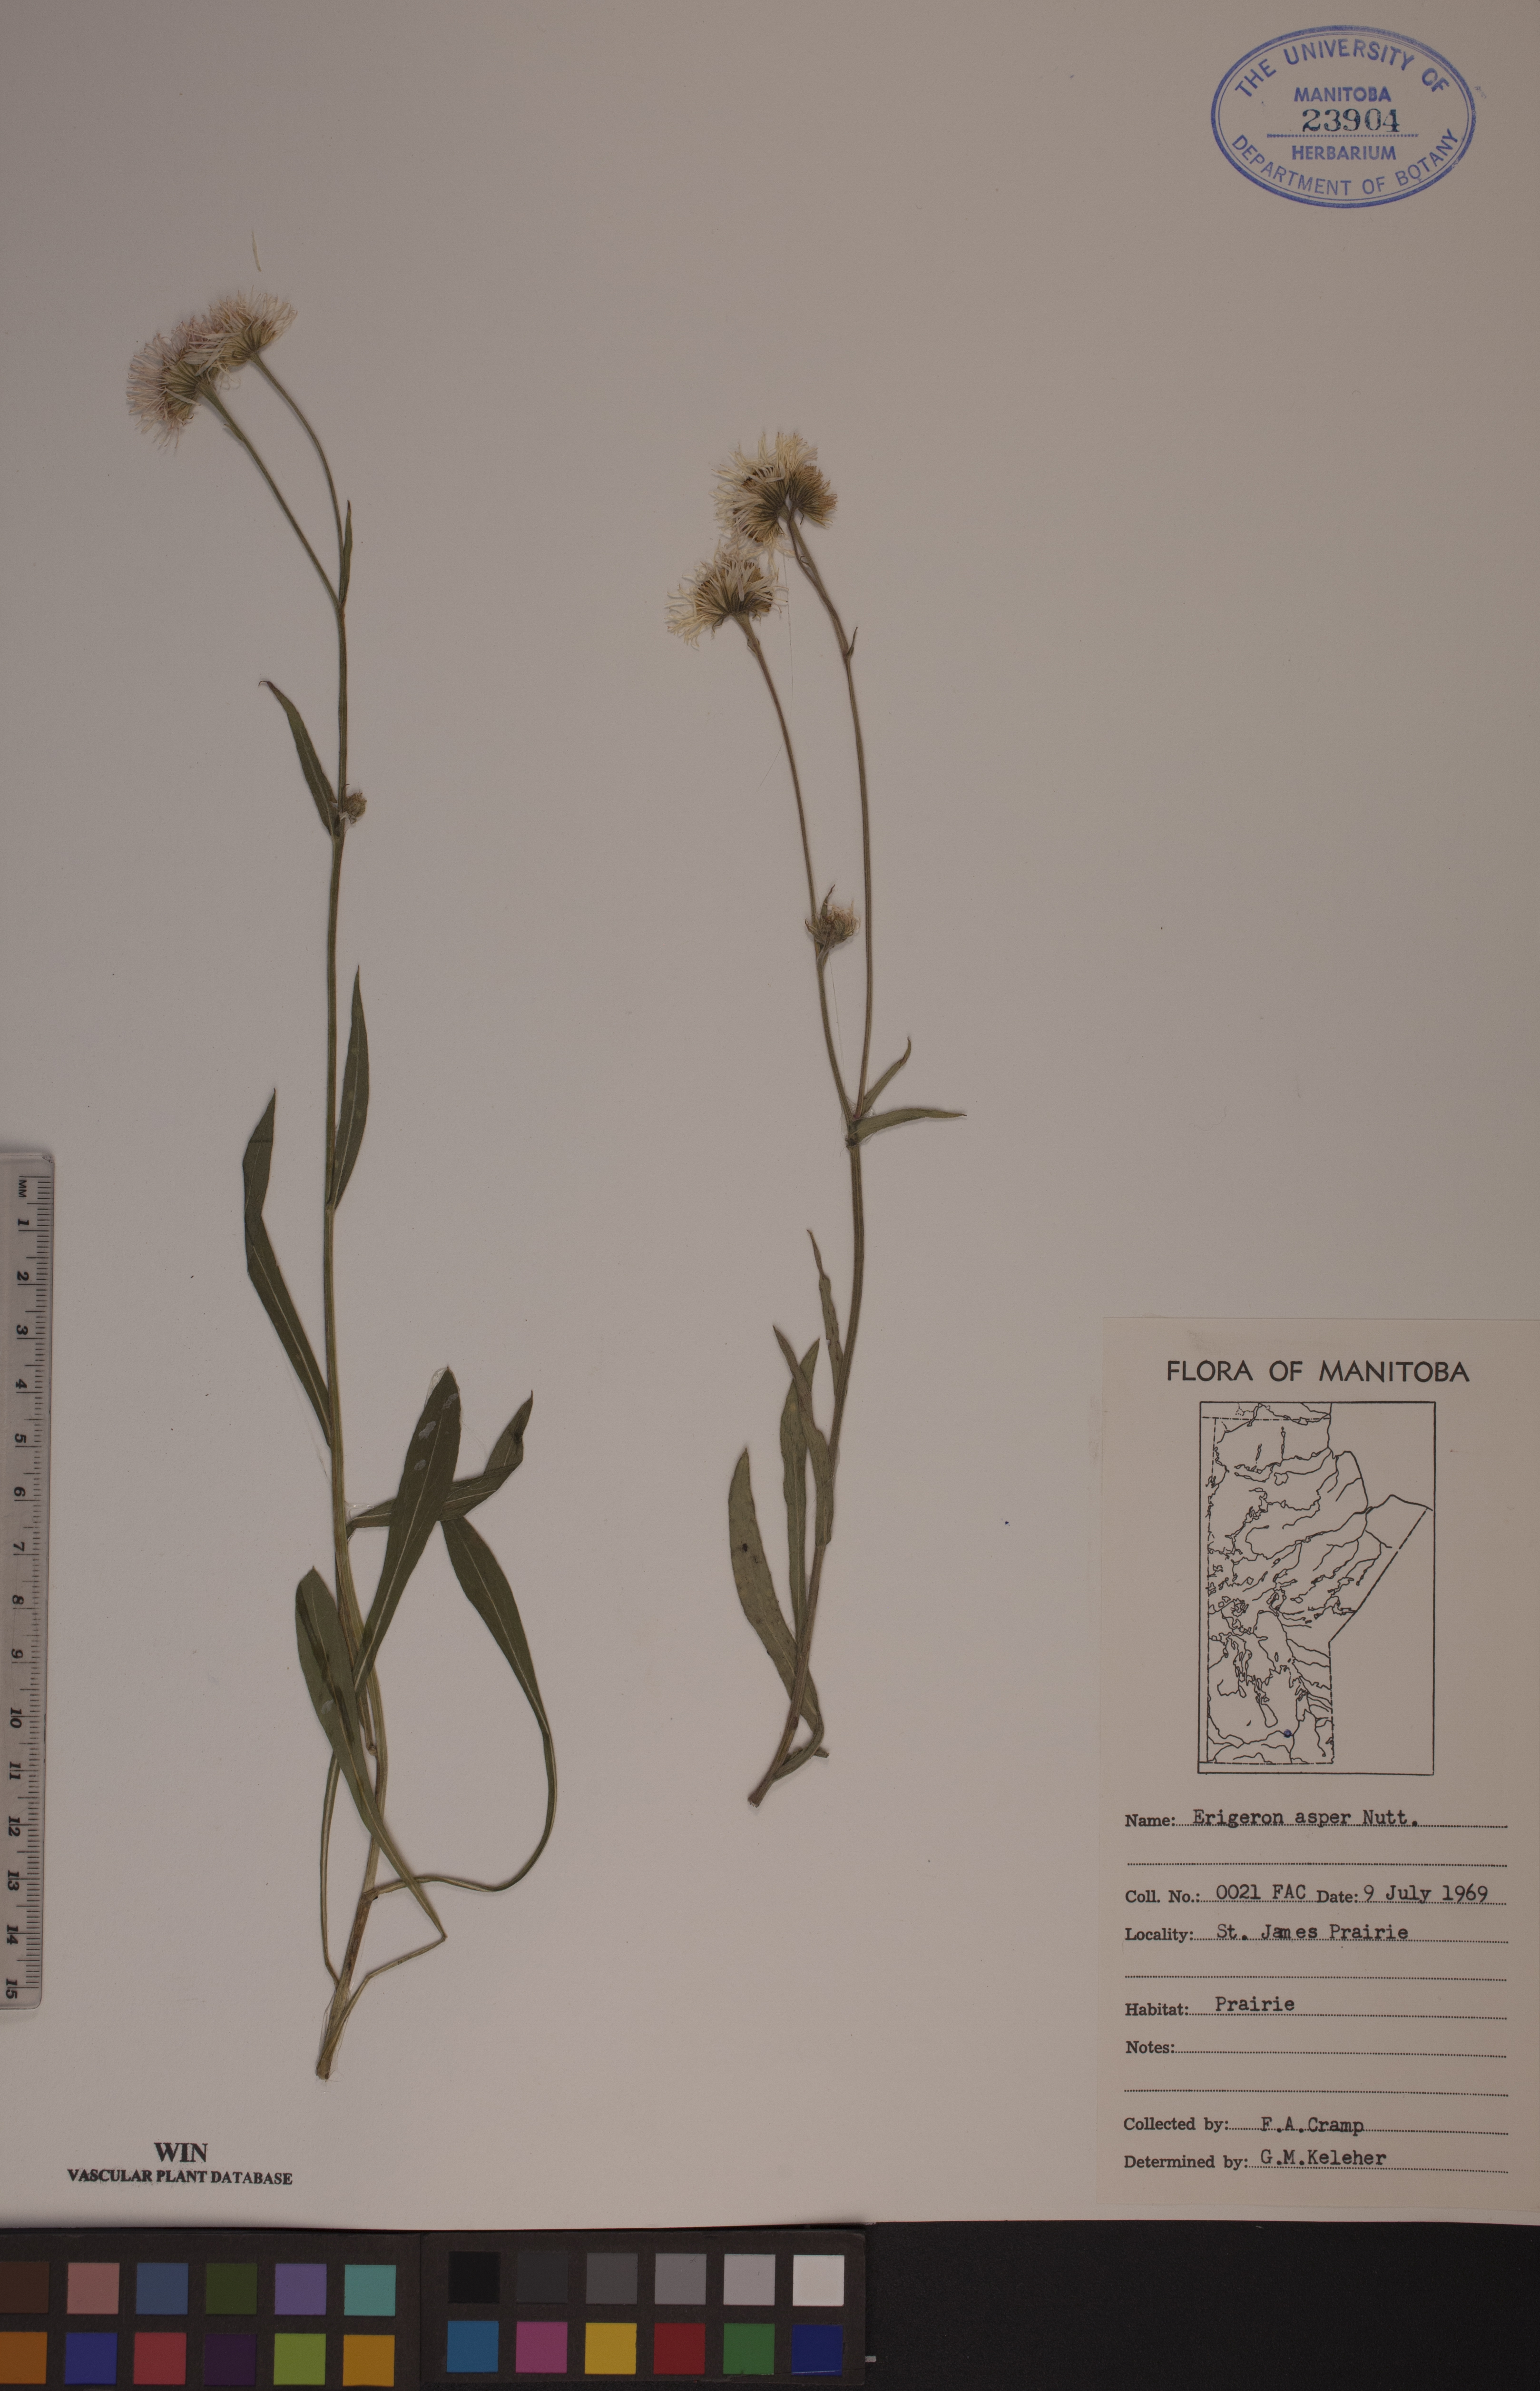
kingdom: Plantae
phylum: Tracheophyta
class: Magnoliopsida
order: Asterales
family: Asteraceae
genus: Erigeron
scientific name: Erigeron glabellus
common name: Smooth fleabane
